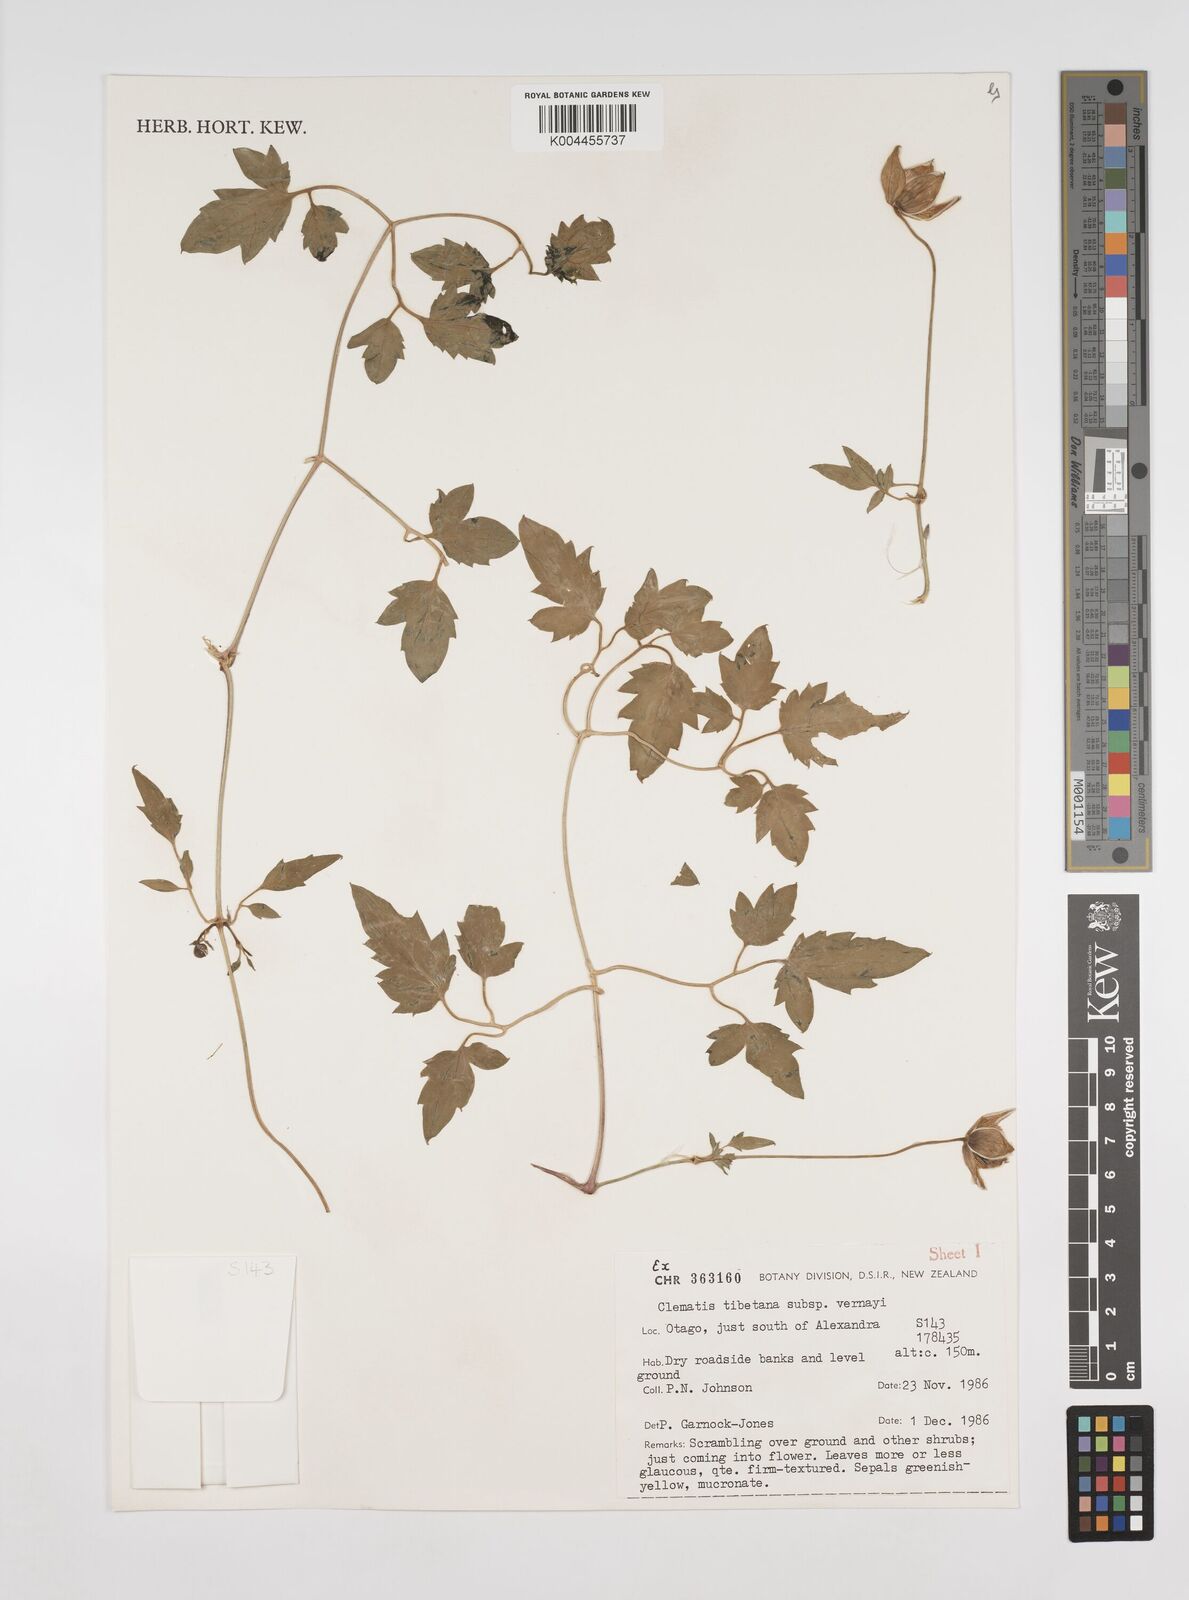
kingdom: Plantae
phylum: Tracheophyta
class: Magnoliopsida
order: Ranunculales
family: Ranunculaceae
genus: Clematis
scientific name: Clematis tibetana
